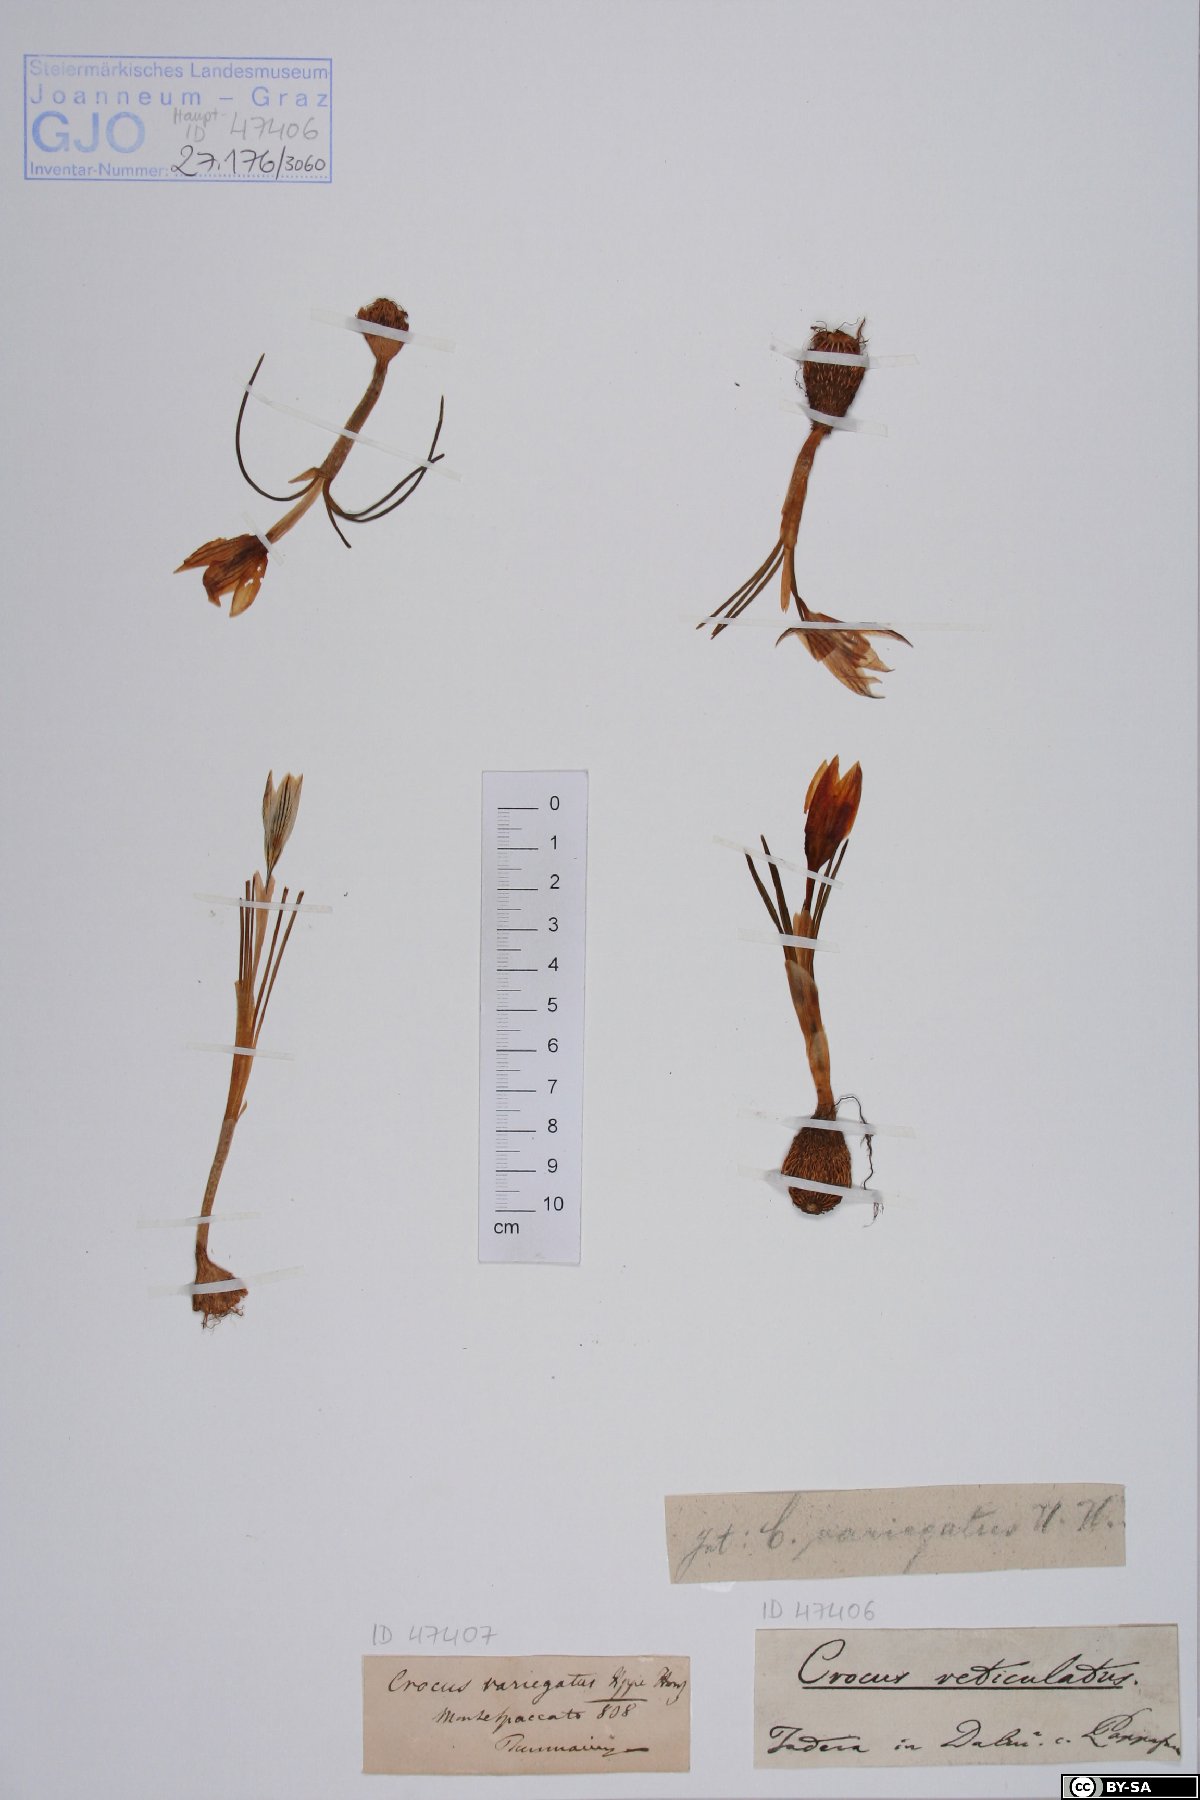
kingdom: Plantae
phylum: Tracheophyta
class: Liliopsida
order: Asparagales
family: Iridaceae
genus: Crocus
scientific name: Crocus reticulatus
